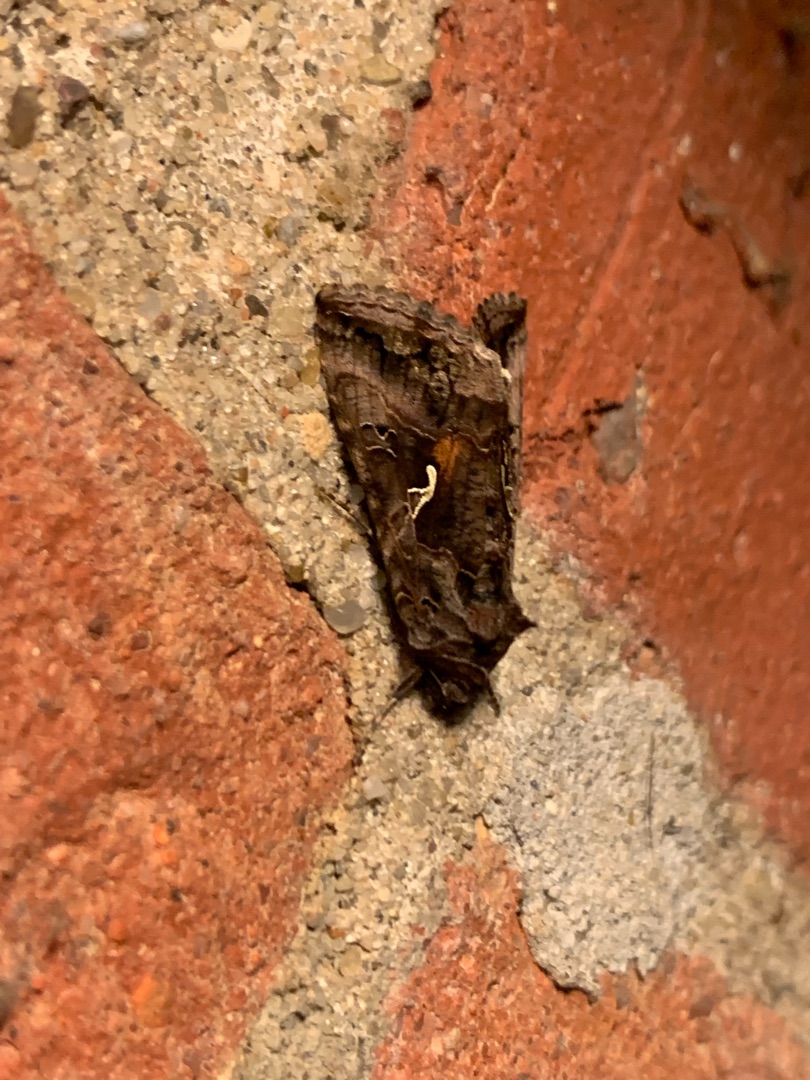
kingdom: Animalia
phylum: Arthropoda
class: Insecta
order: Lepidoptera
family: Noctuidae
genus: Autographa
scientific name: Autographa gamma
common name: Gammaugle
